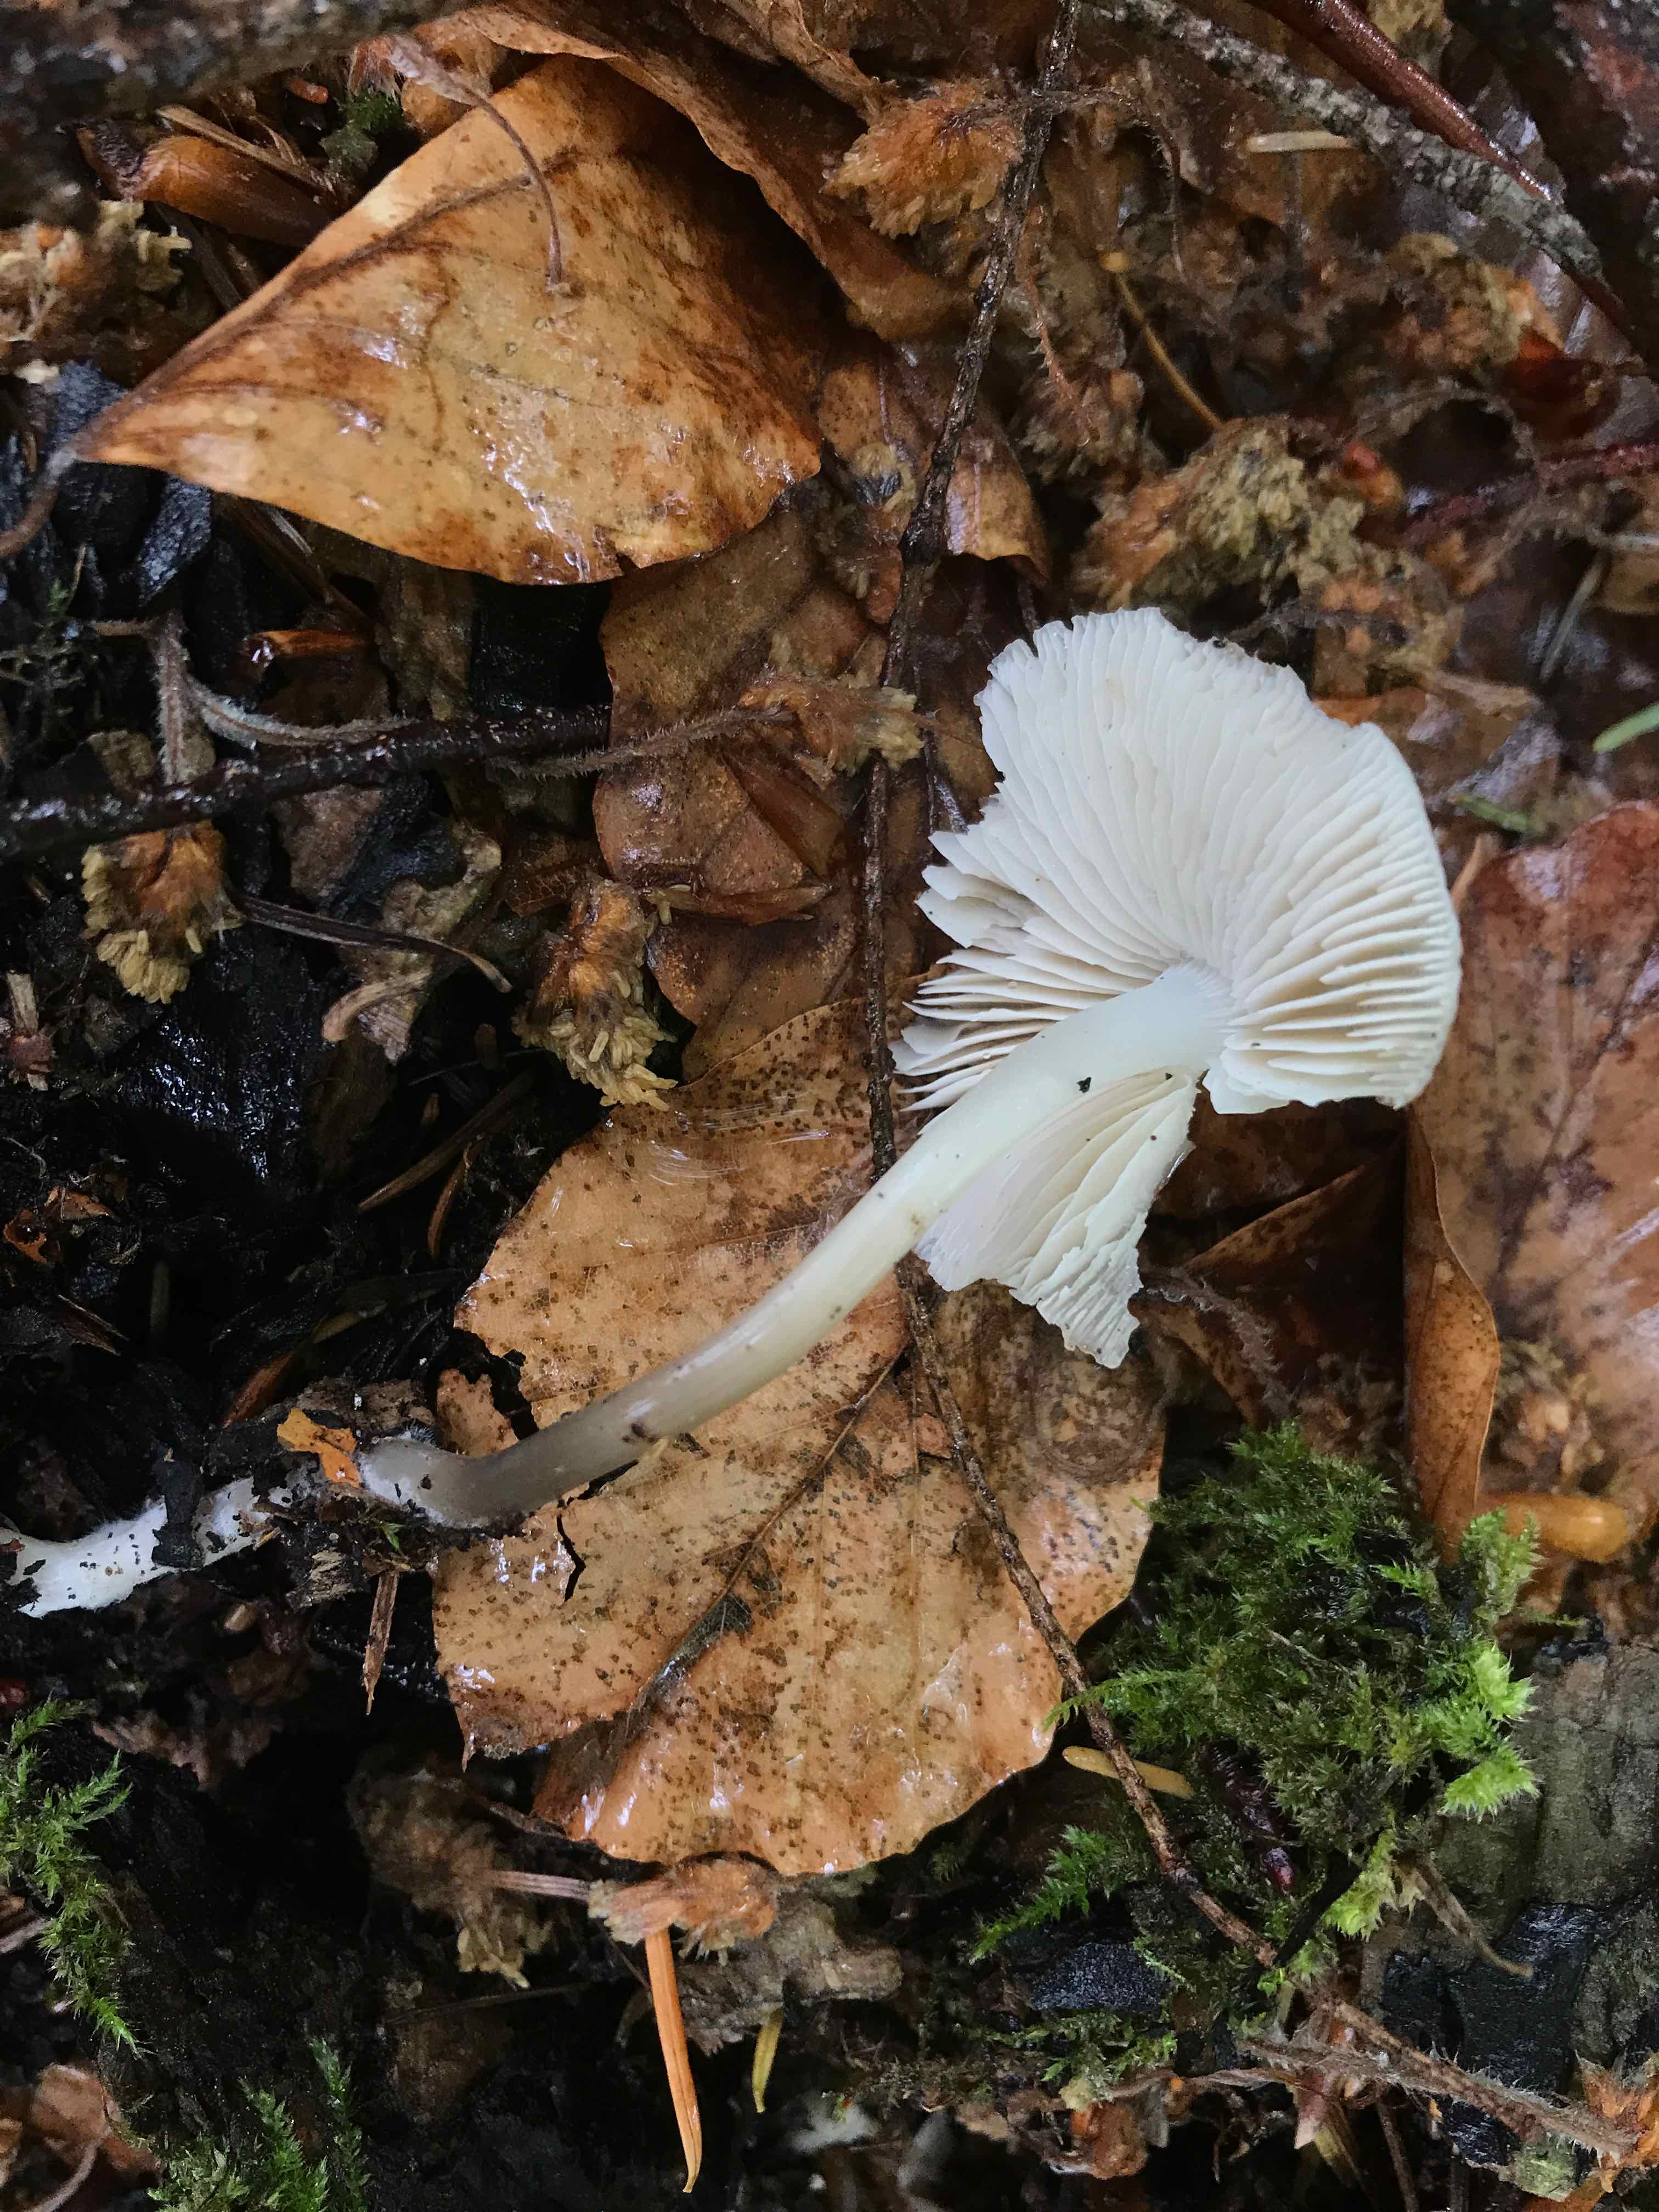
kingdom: Fungi
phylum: Basidiomycota
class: Agaricomycetes
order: Agaricales
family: Mycenaceae
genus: Mycena
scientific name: Mycena galericulata
